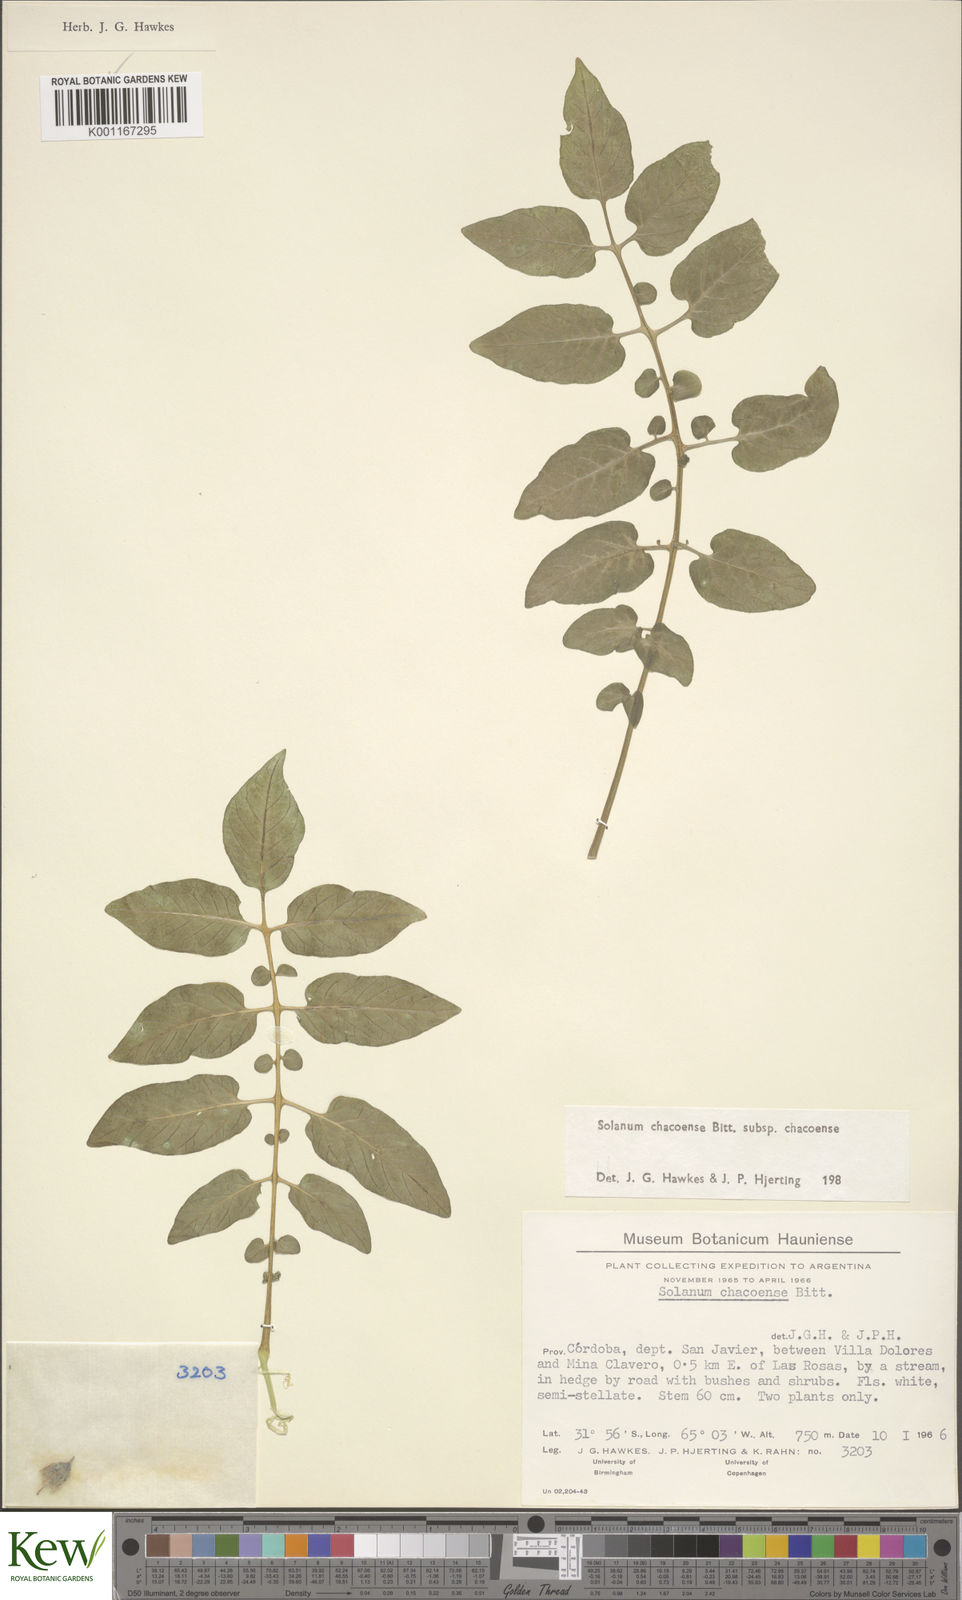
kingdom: Plantae
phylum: Tracheophyta
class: Magnoliopsida
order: Solanales
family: Solanaceae
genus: Solanum
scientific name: Solanum chacoense
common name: Chaco potato
